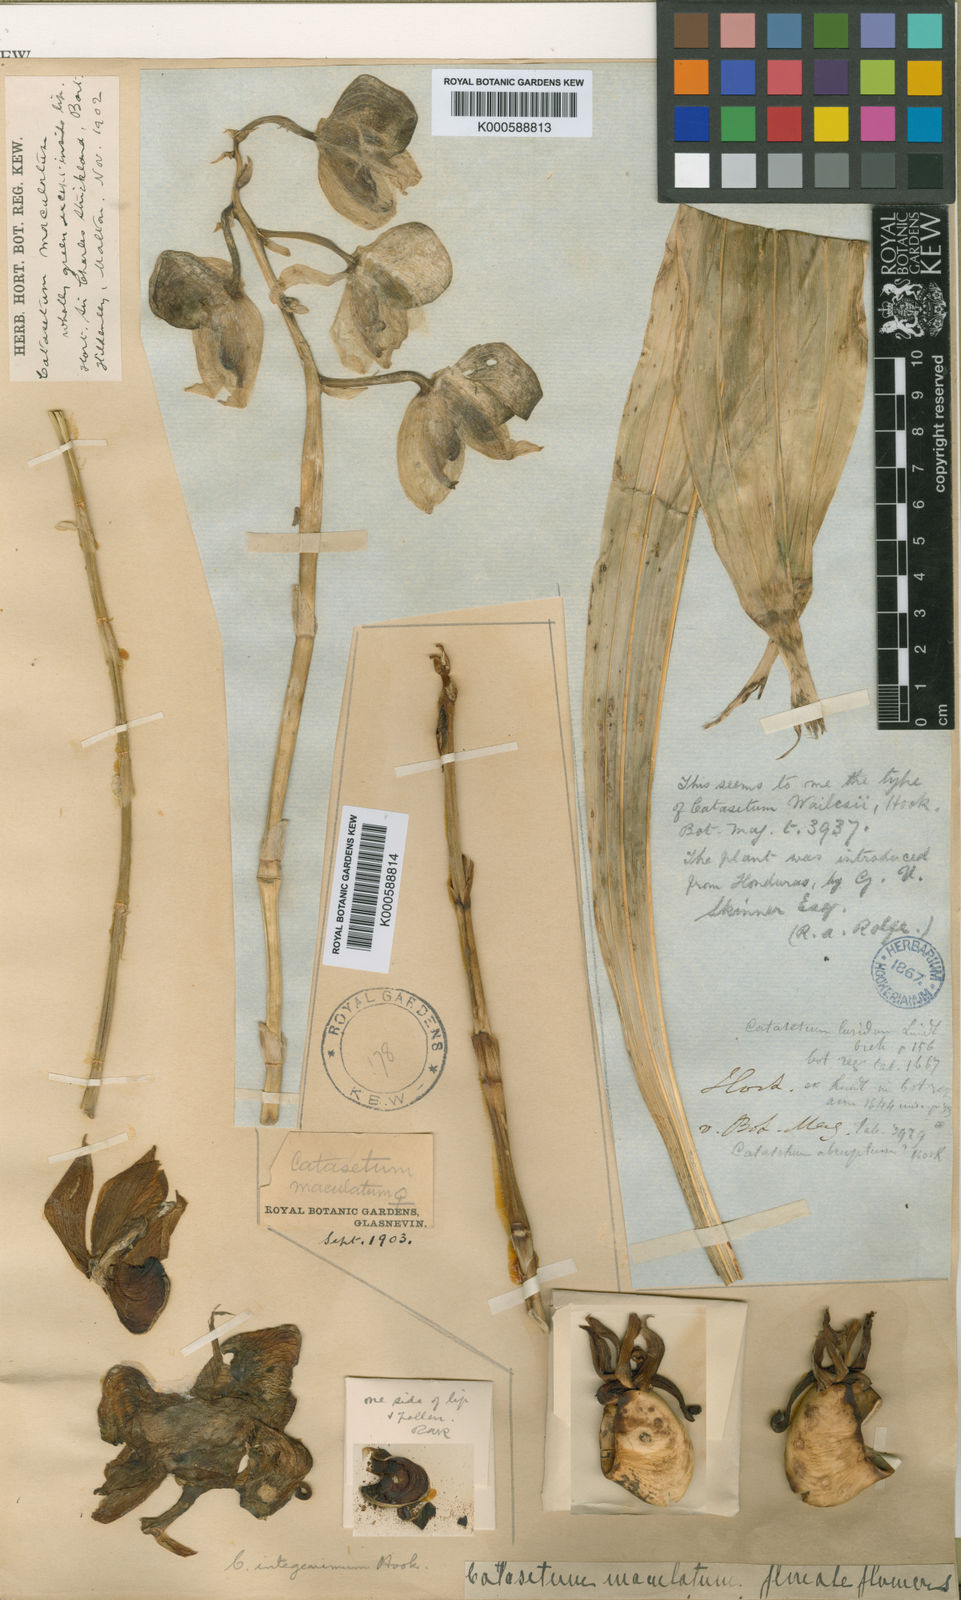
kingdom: Plantae
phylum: Tracheophyta
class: Liliopsida
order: Asparagales
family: Orchidaceae
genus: Catasetum
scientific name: Catasetum integerrimum
